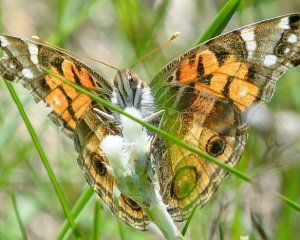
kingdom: Animalia
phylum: Arthropoda
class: Insecta
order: Lepidoptera
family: Nymphalidae
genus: Vanessa
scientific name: Vanessa virginiensis
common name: American Lady
